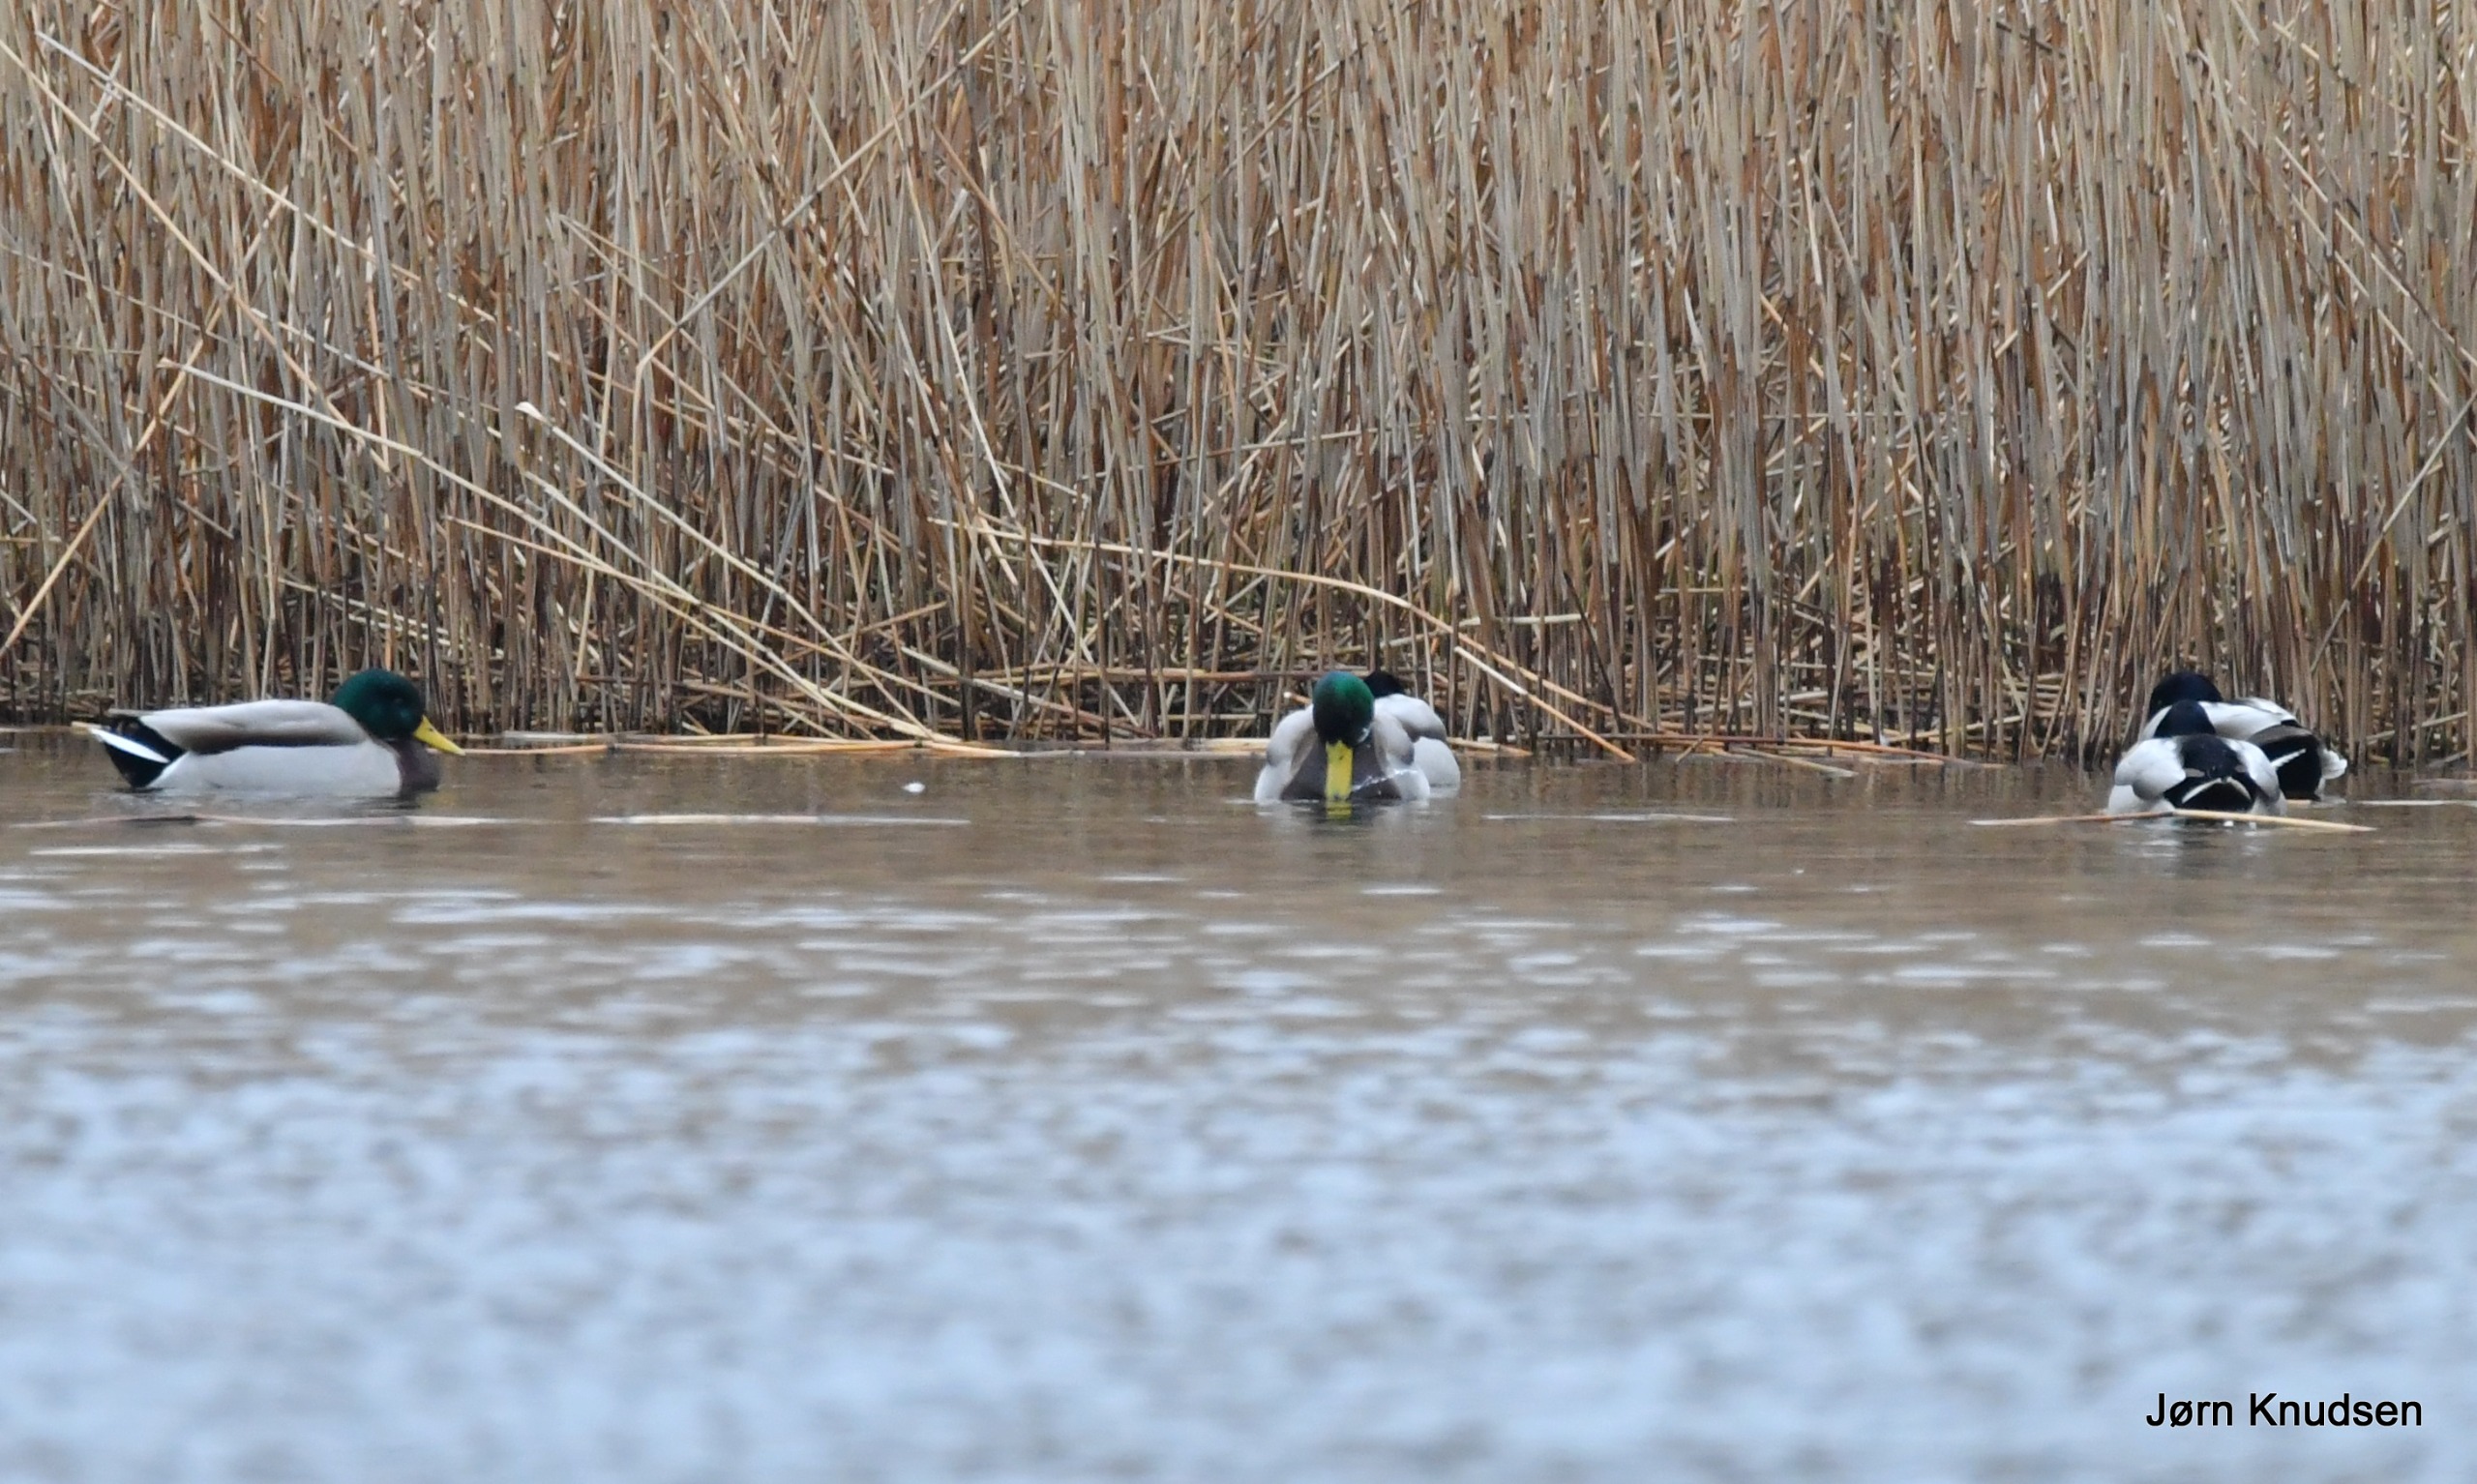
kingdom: Animalia
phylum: Chordata
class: Aves
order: Anseriformes
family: Anatidae
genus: Anas
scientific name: Anas platyrhynchos
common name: Gråand
